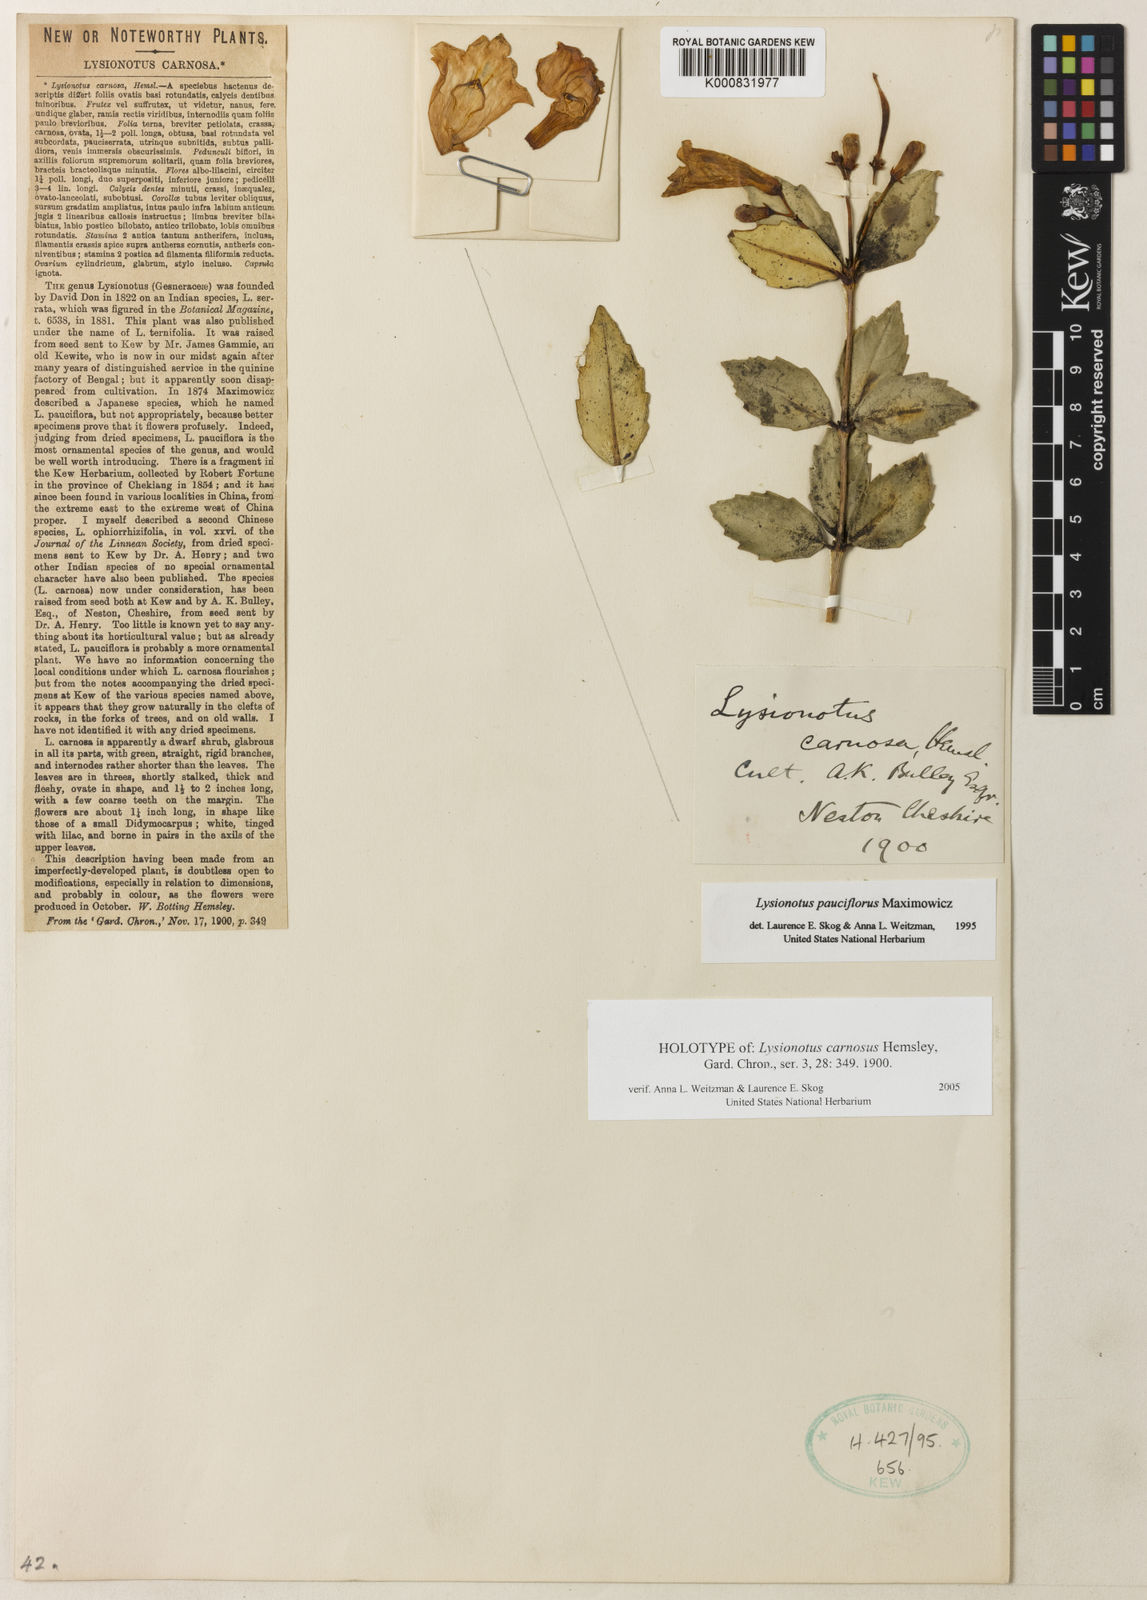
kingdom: Plantae
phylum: Tracheophyta
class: Magnoliopsida
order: Lamiales
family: Gesneriaceae
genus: Lysionotus
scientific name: Lysionotus pauciflorus
